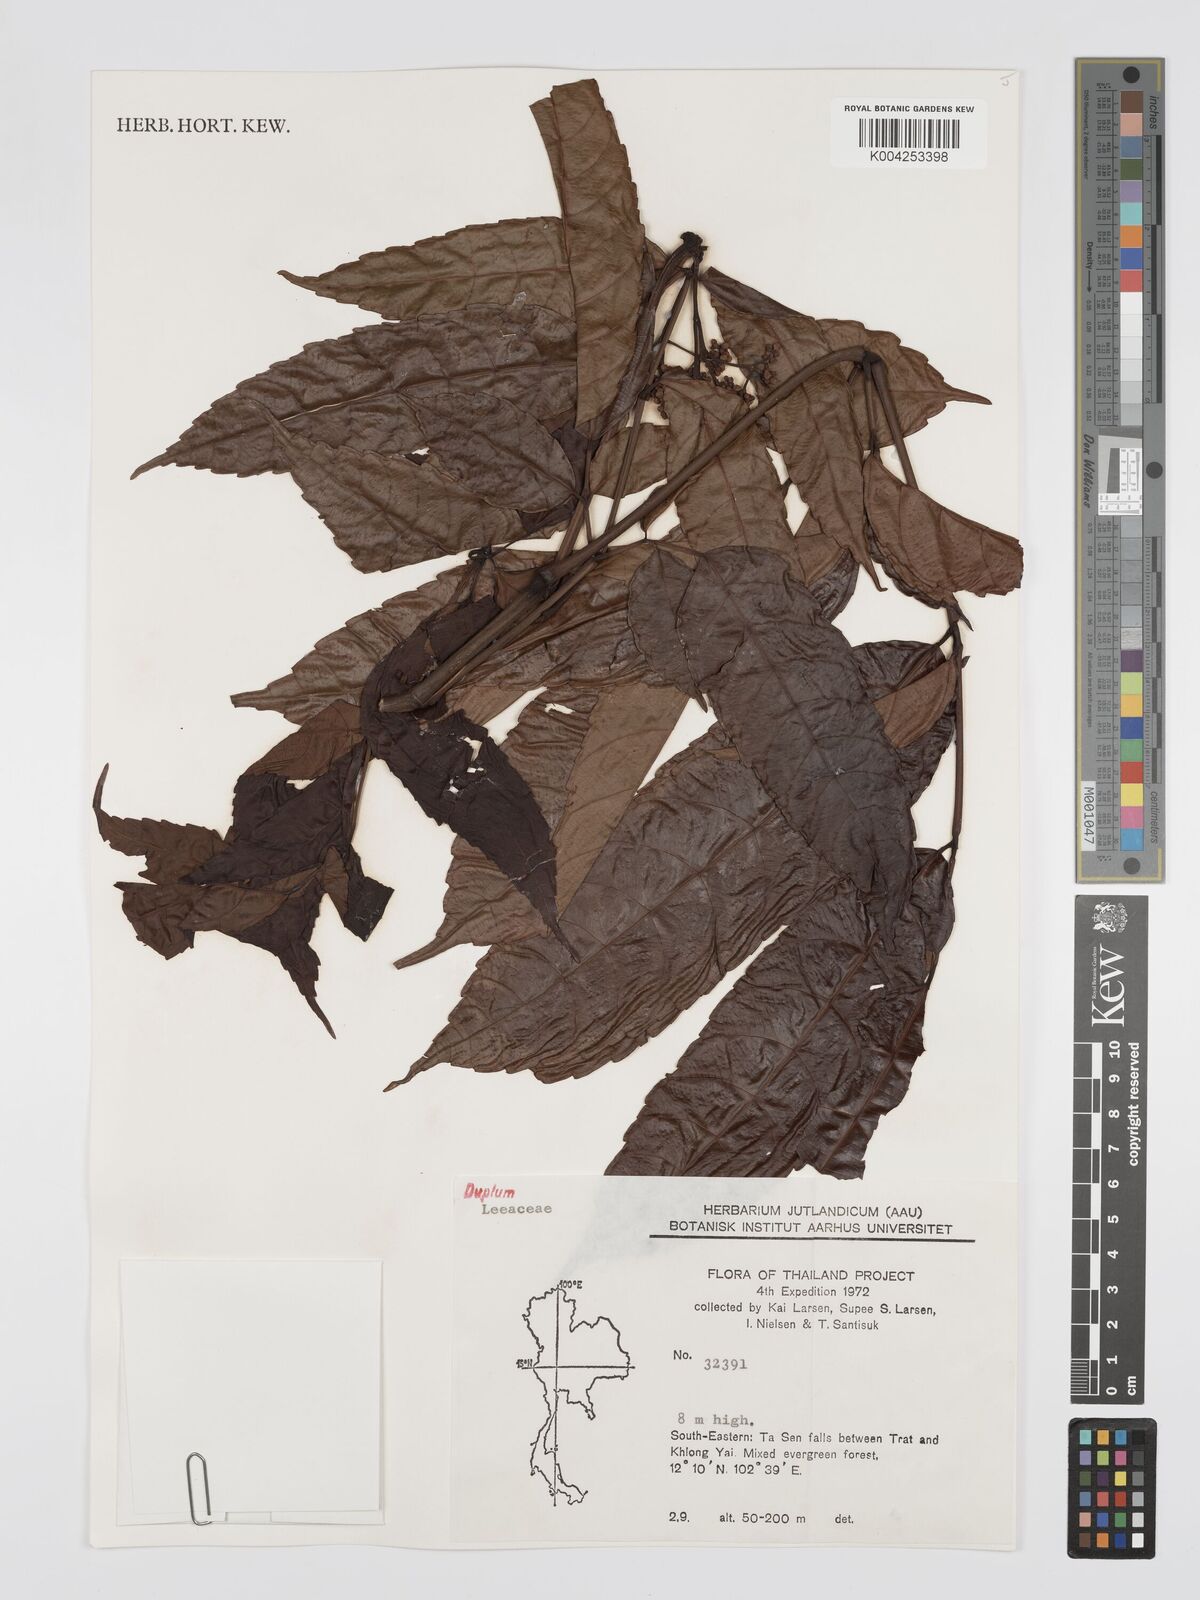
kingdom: Plantae
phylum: Tracheophyta
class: Magnoliopsida
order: Vitales
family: Vitaceae
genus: Leea
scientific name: Leea
